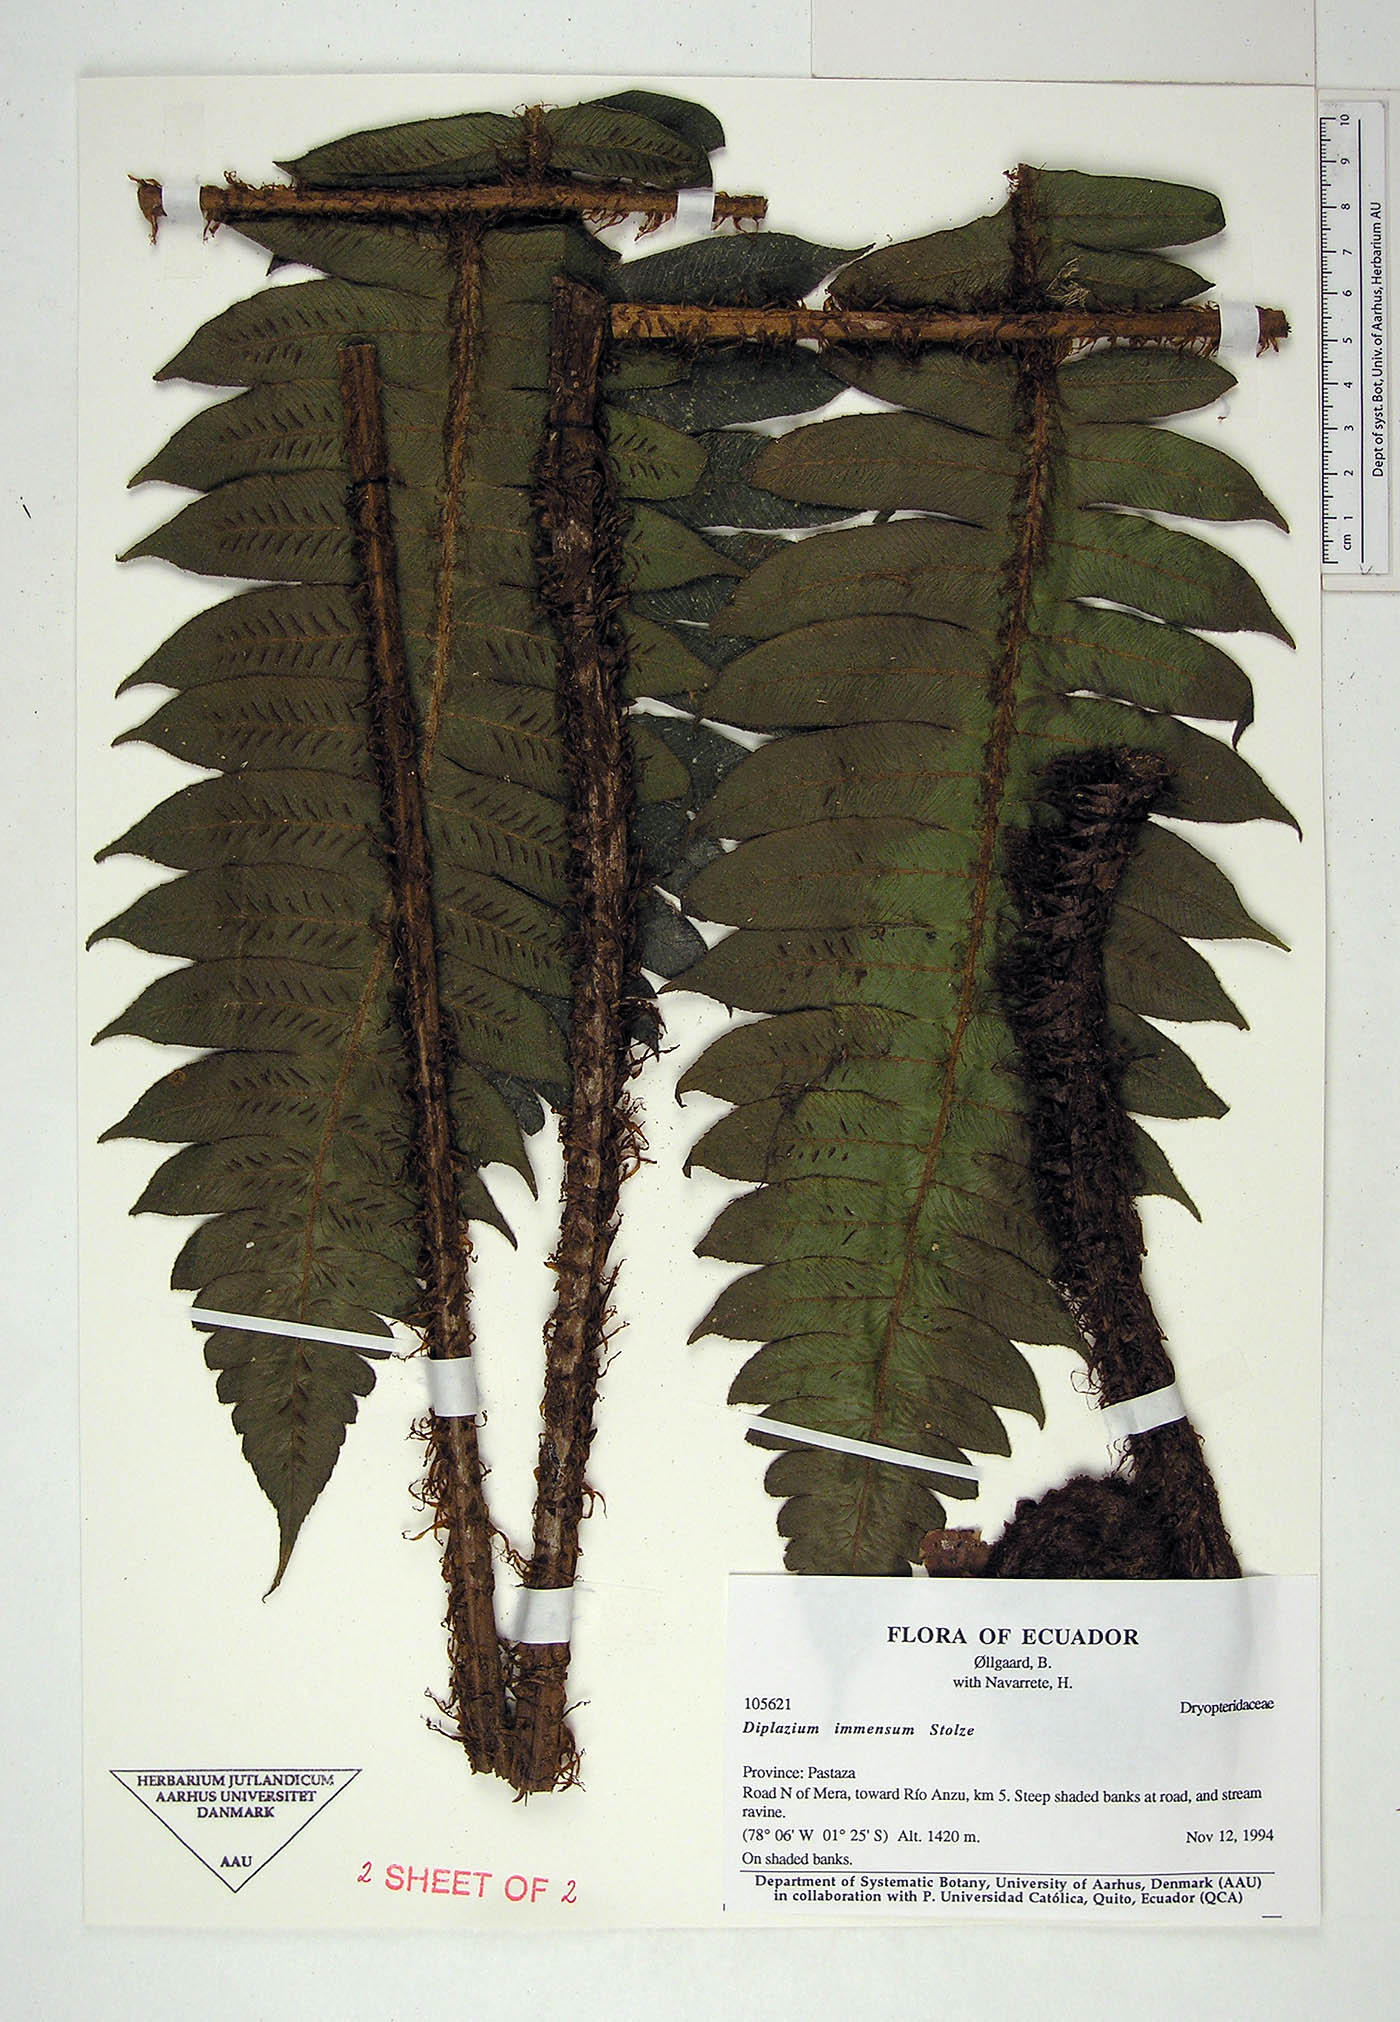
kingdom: Plantae
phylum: Tracheophyta
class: Polypodiopsida
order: Polypodiales
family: Athyriaceae
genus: Diplazium
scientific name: Diplazium immensum
